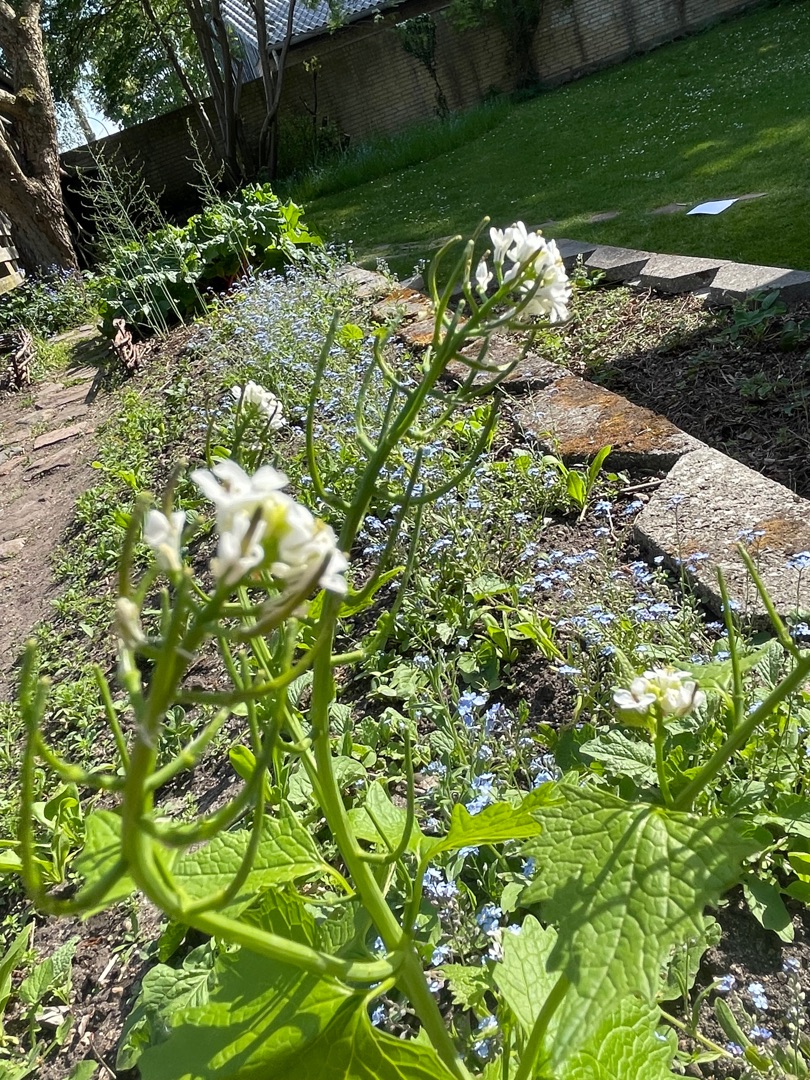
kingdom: Plantae
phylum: Tracheophyta
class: Magnoliopsida
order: Brassicales
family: Brassicaceae
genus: Alliaria
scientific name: Alliaria petiolata
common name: Løgkarse
